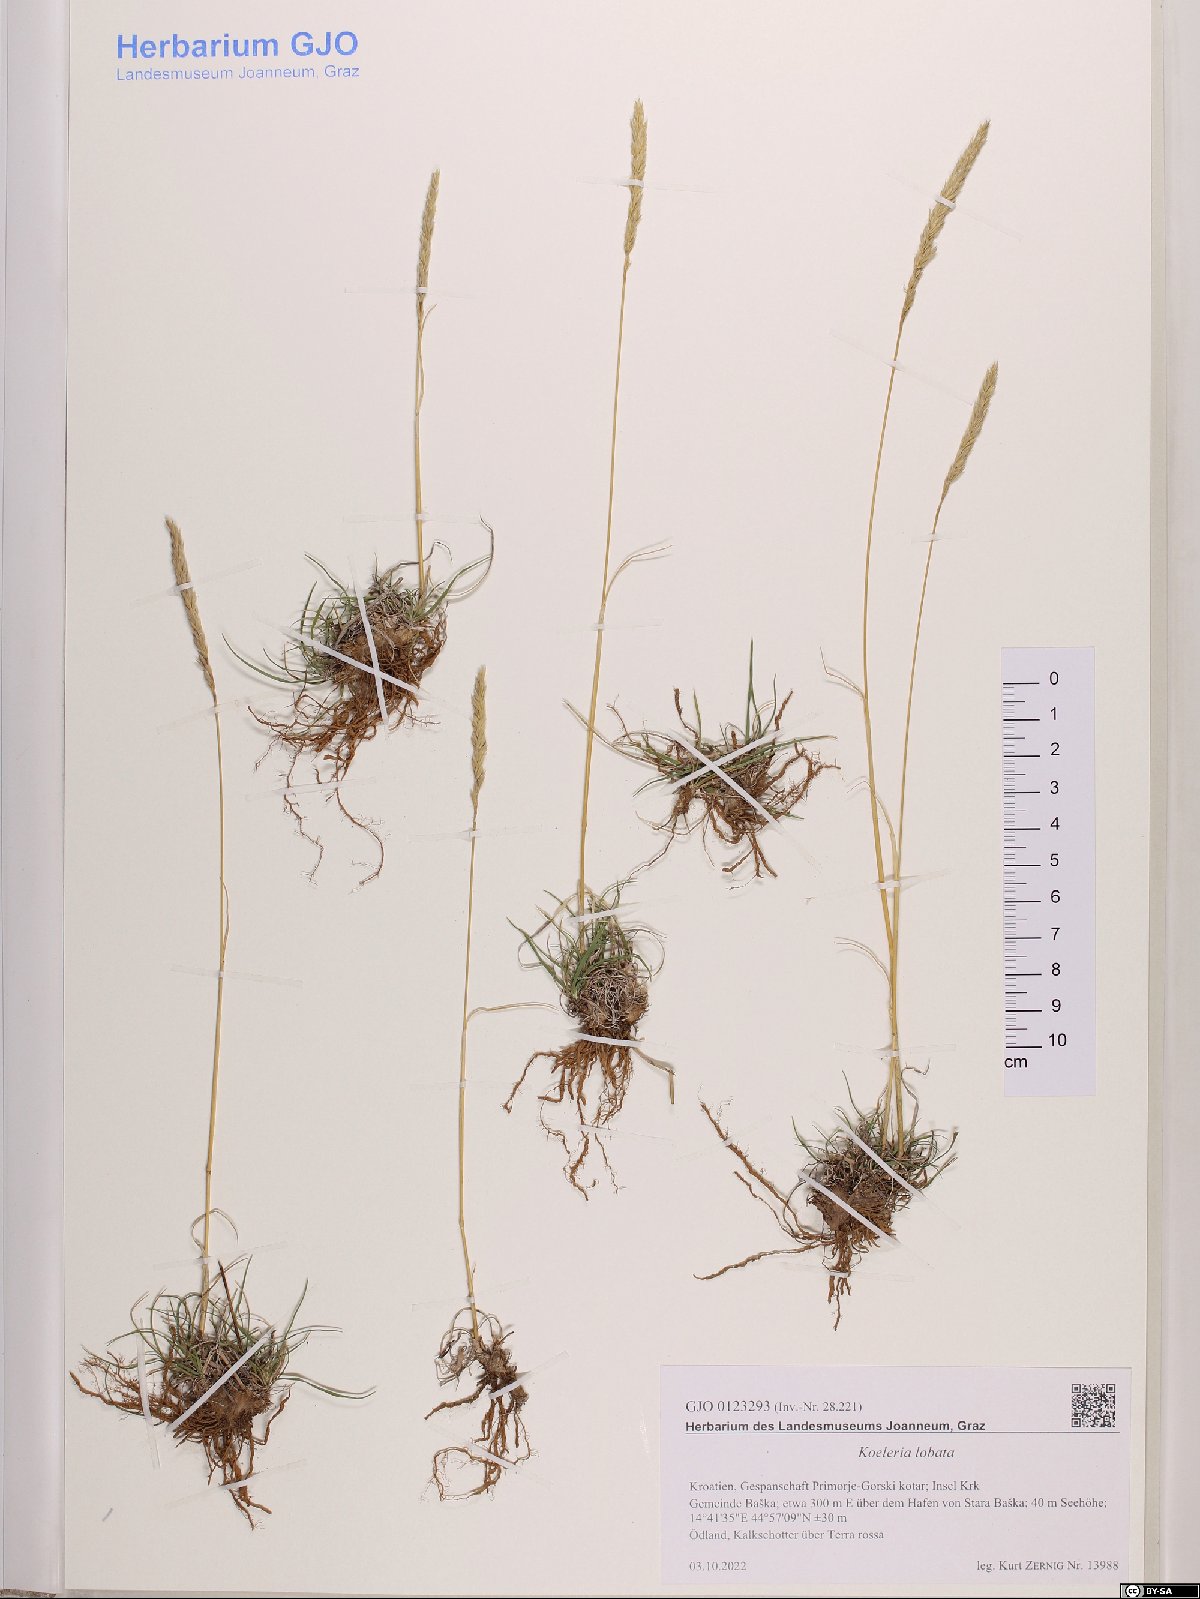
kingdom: Plantae
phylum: Tracheophyta
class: Liliopsida
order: Poales
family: Poaceae
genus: Koeleria
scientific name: Koeleria brevis
